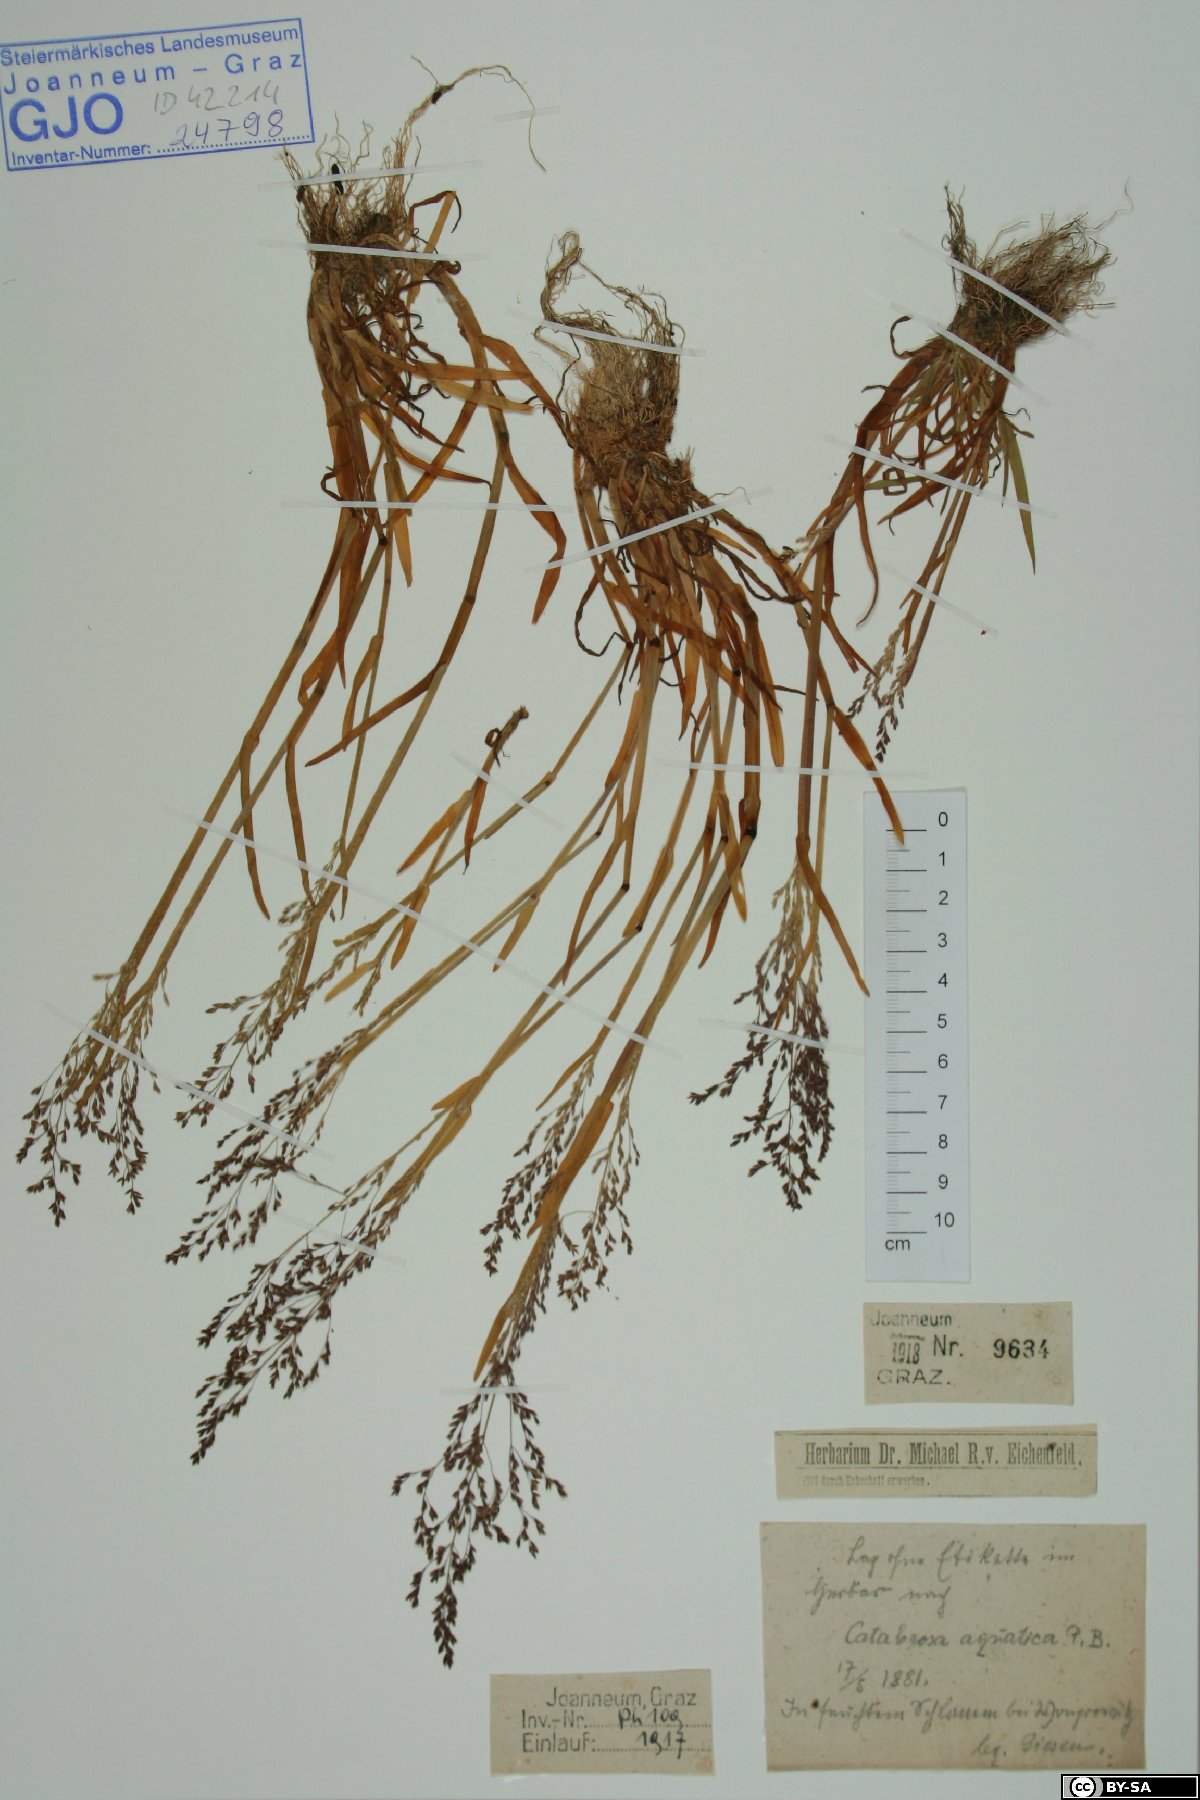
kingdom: Plantae
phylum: Tracheophyta
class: Liliopsida
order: Poales
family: Poaceae
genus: Catabrosa
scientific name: Catabrosa aquatica
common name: Whorl-grass
